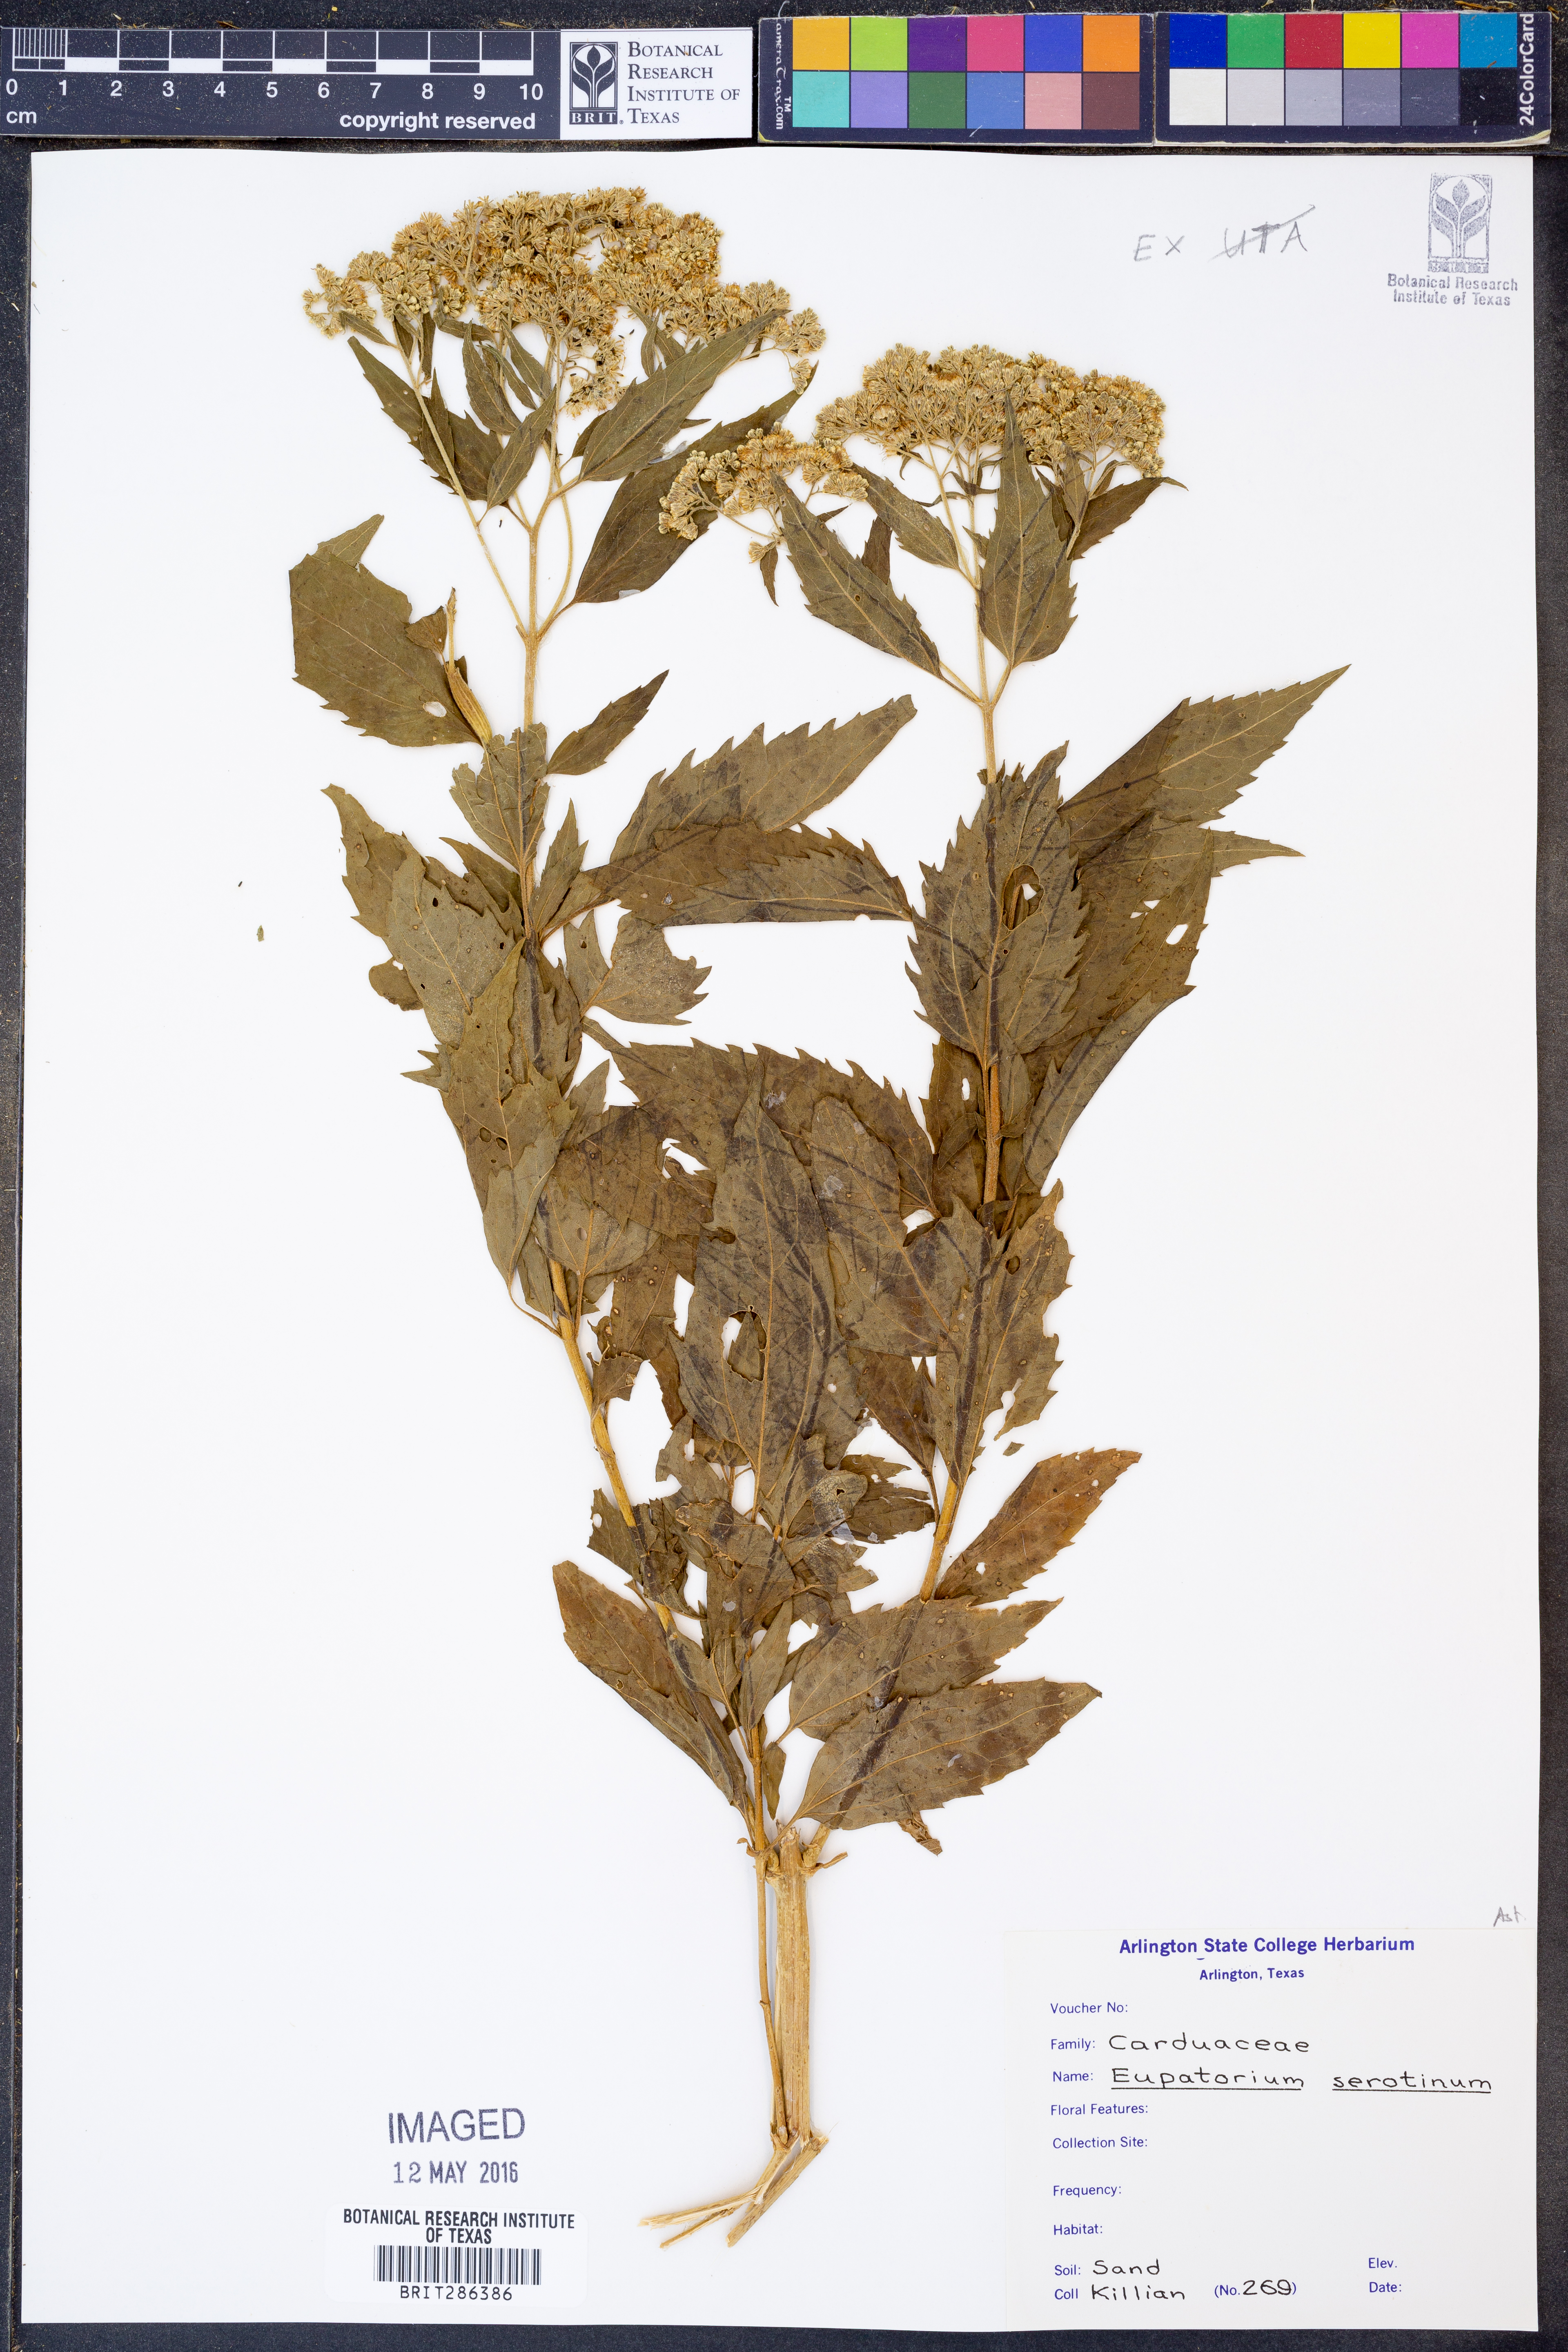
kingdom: Plantae
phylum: Tracheophyta
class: Magnoliopsida
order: Asterales
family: Asteraceae
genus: Eupatorium
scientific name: Eupatorium serotinum
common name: Late boneset
